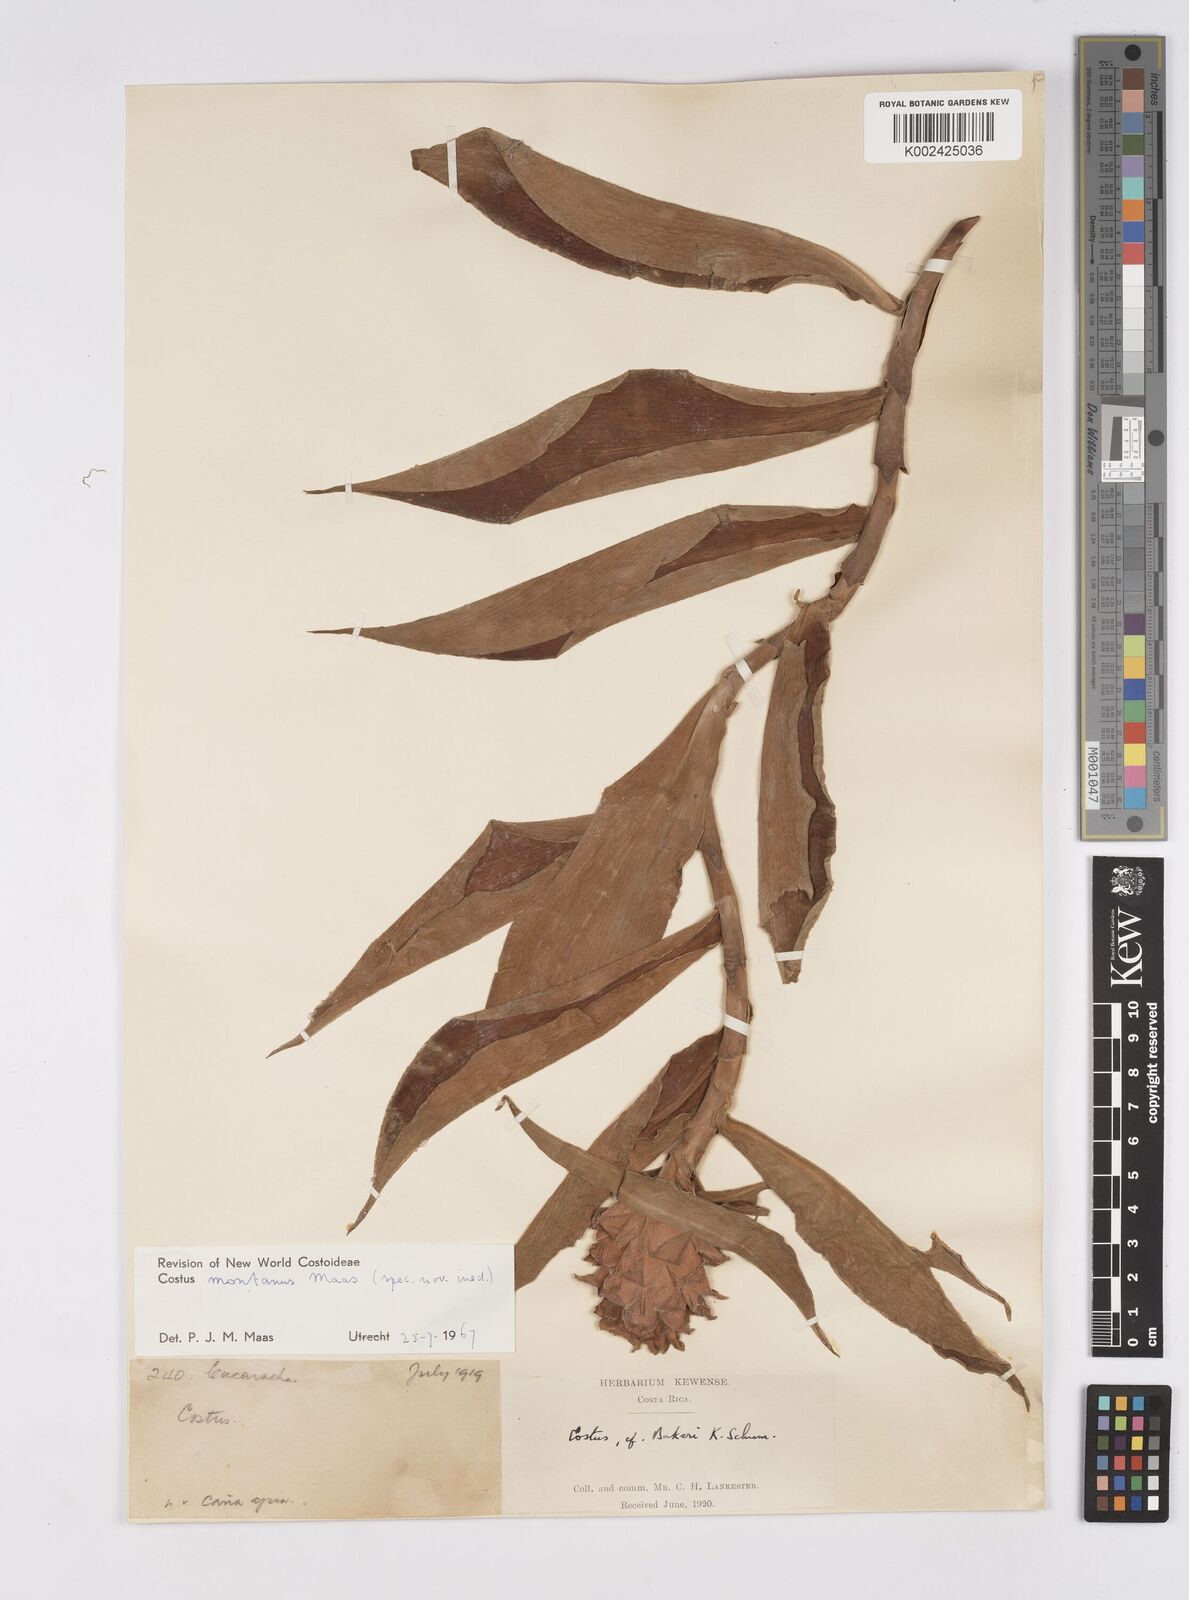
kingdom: Plantae
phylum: Tracheophyta
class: Liliopsida
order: Zingiberales
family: Costaceae
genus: Costus
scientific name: Costus montanus
